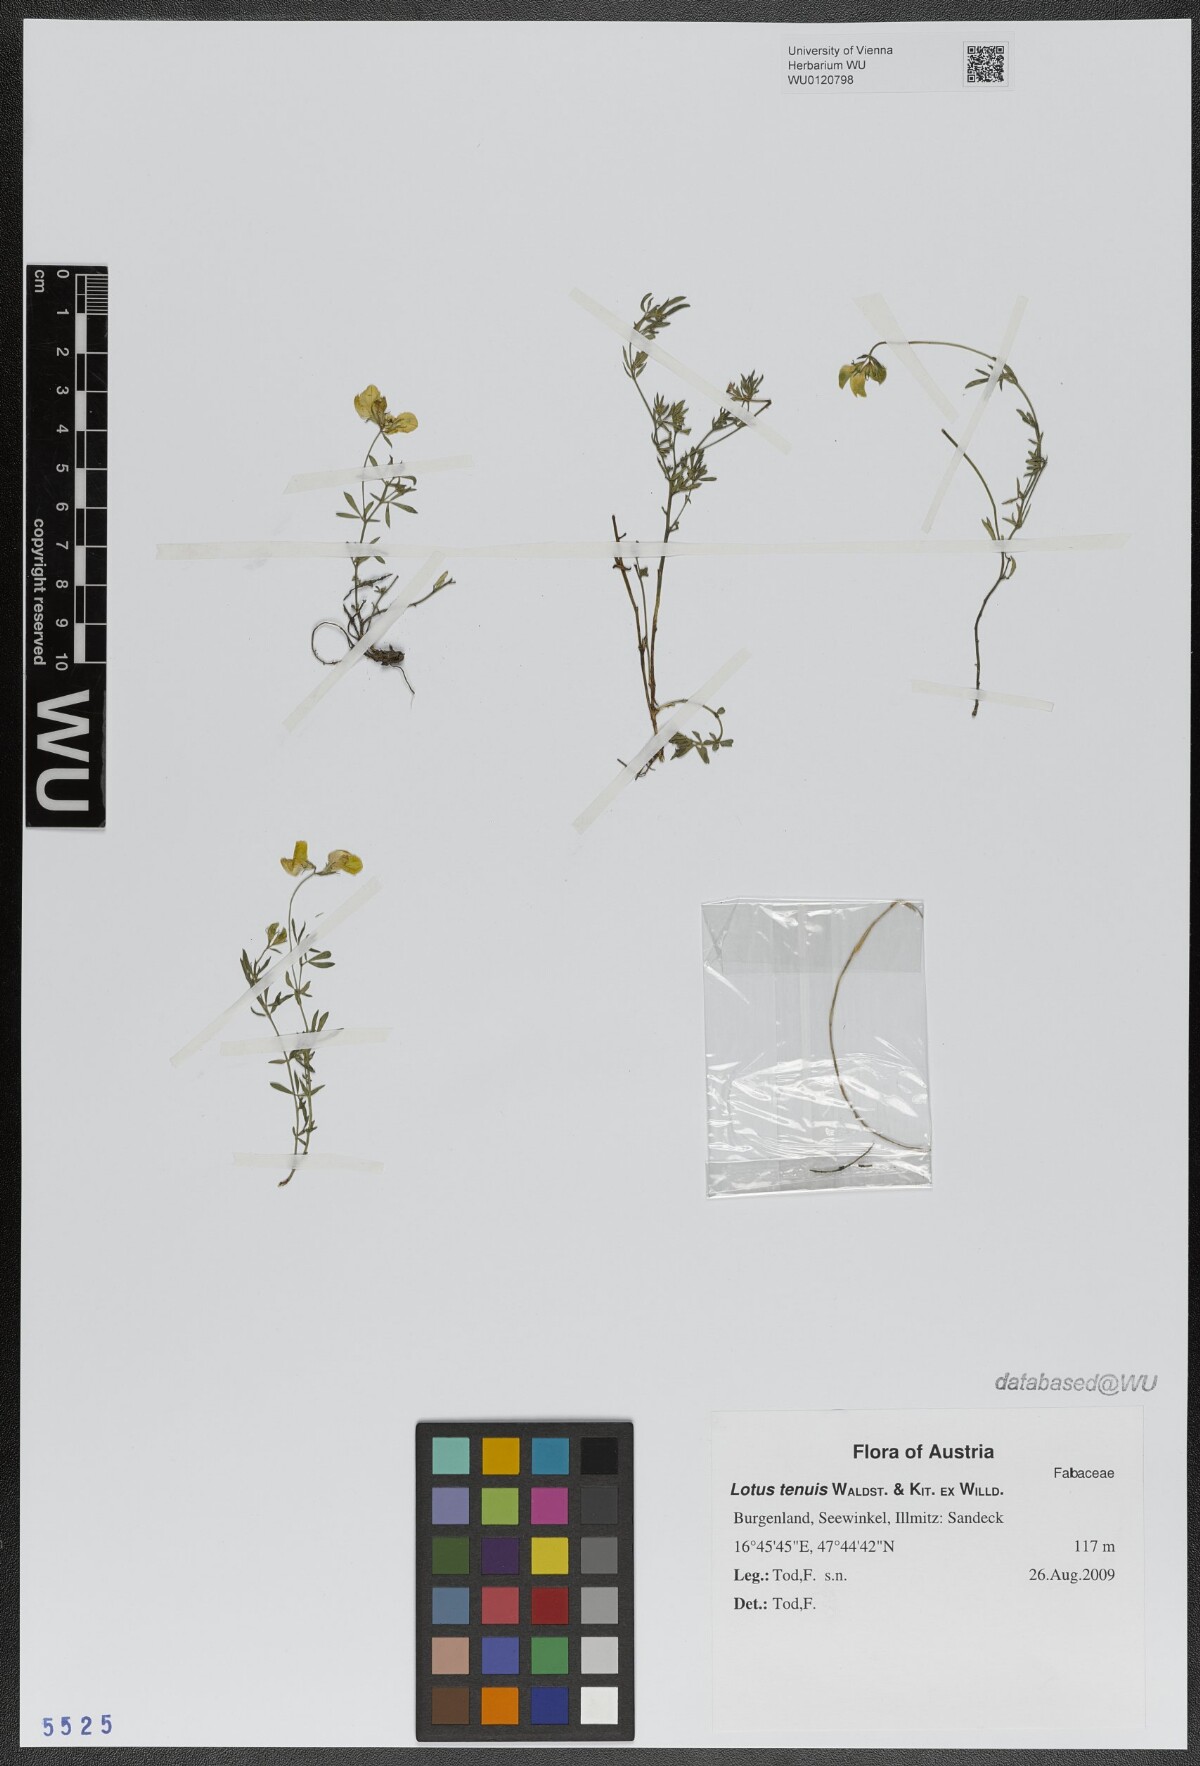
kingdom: Plantae
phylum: Tracheophyta
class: Magnoliopsida
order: Fabales
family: Fabaceae
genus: Lotus
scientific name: Lotus tenuis
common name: Narrow-leaved bird's-foot-trefoil
